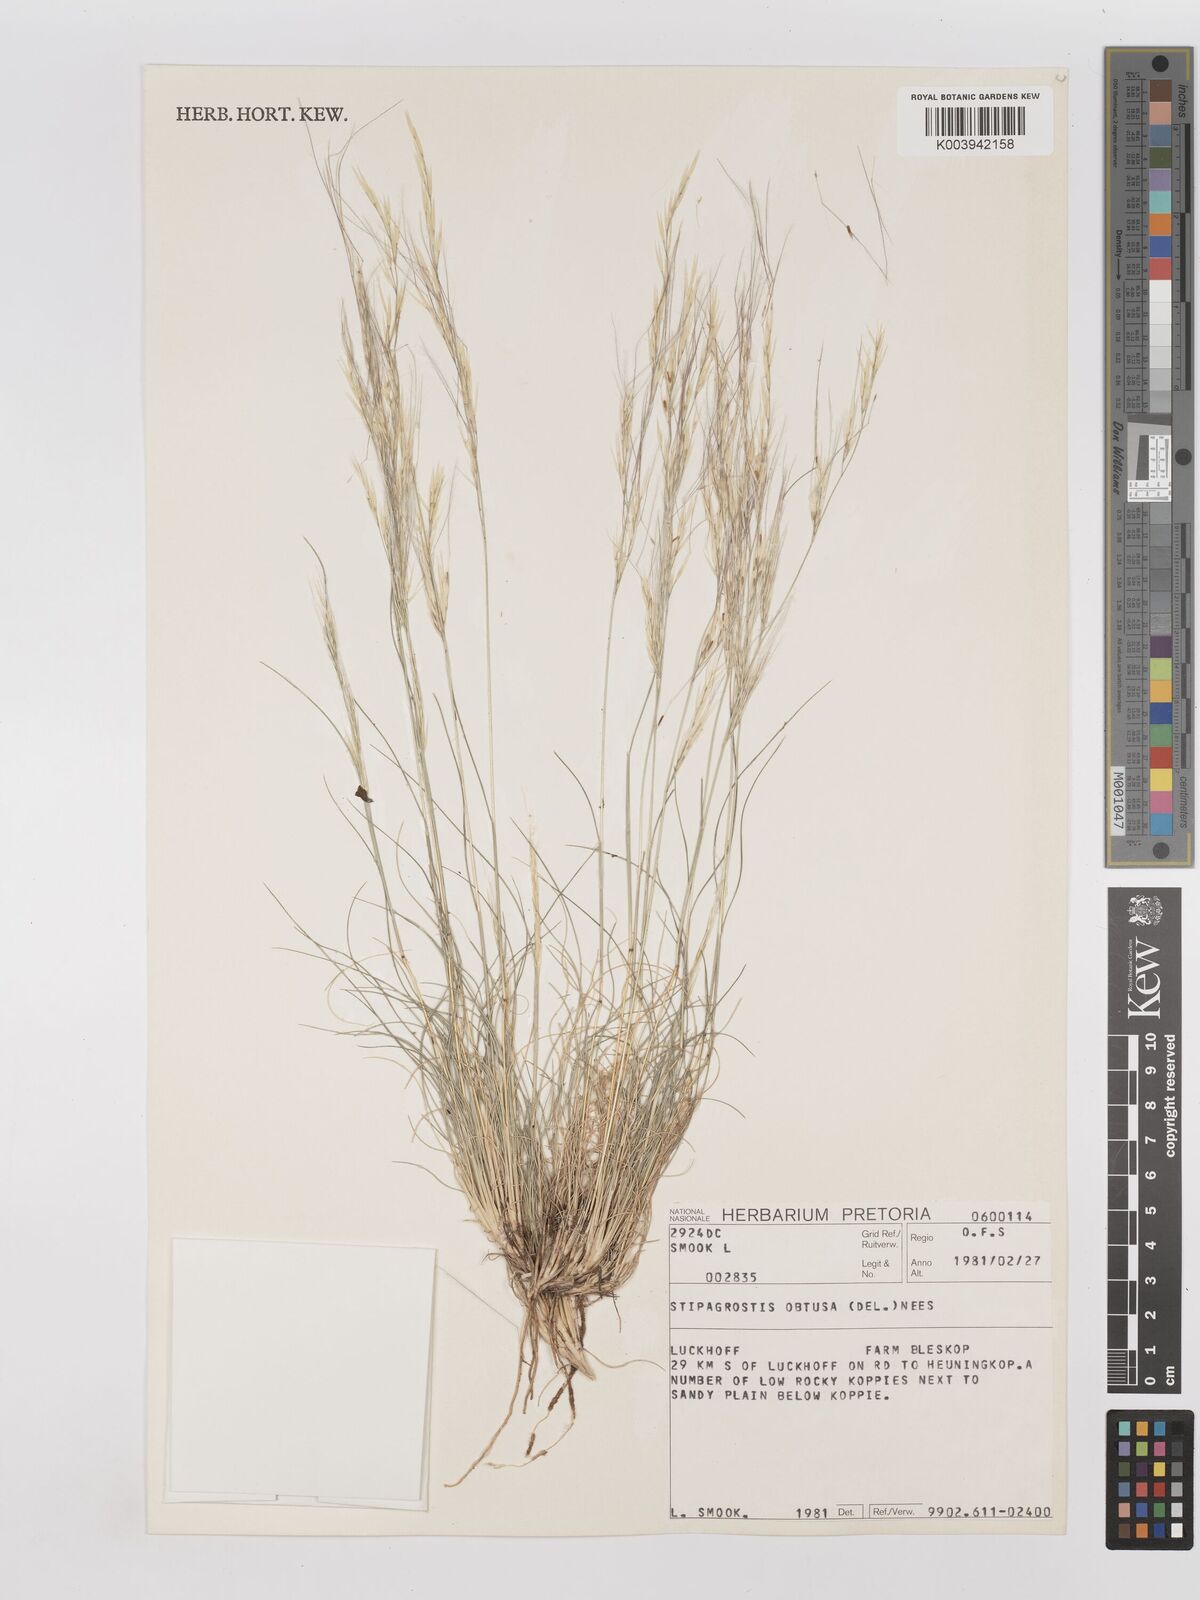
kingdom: Plantae
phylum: Tracheophyta
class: Liliopsida
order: Poales
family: Poaceae
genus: Stipagrostis
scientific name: Stipagrostis obtusa
